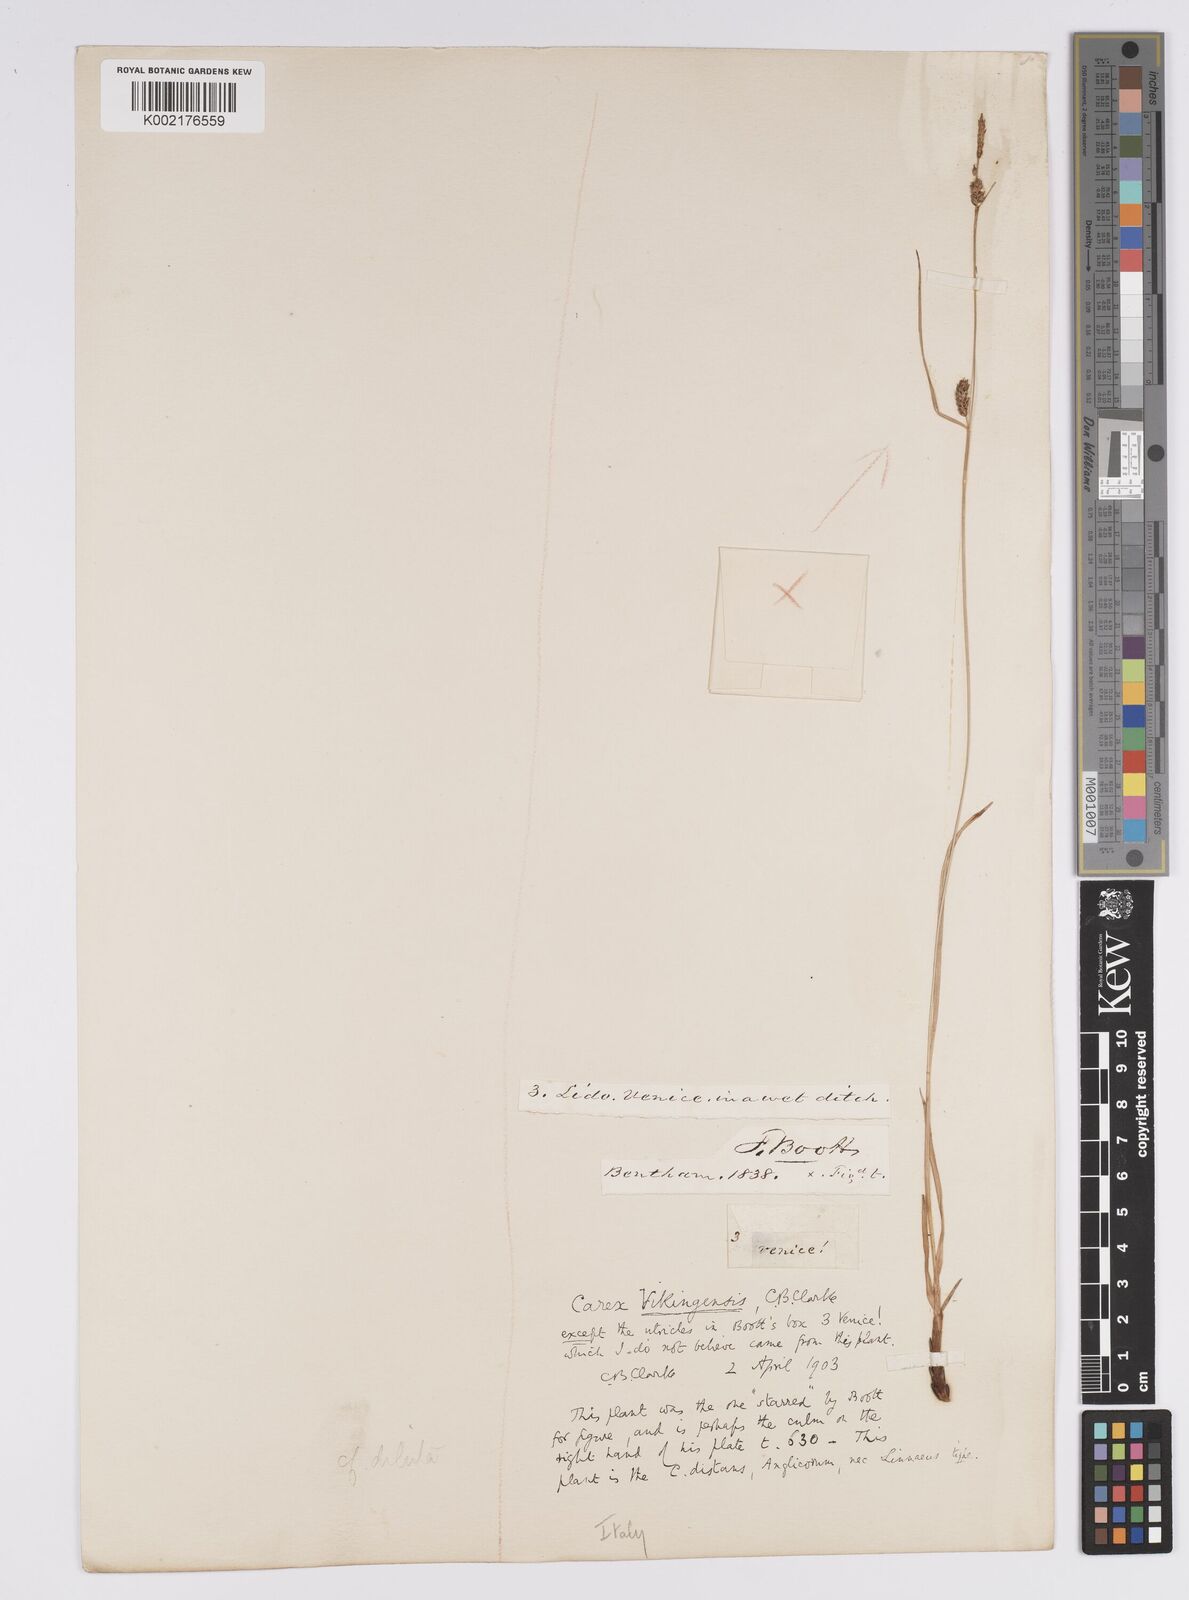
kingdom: Plantae
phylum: Tracheophyta
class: Liliopsida
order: Poales
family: Cyperaceae
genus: Carex
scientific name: Carex distans
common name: Distant sedge
